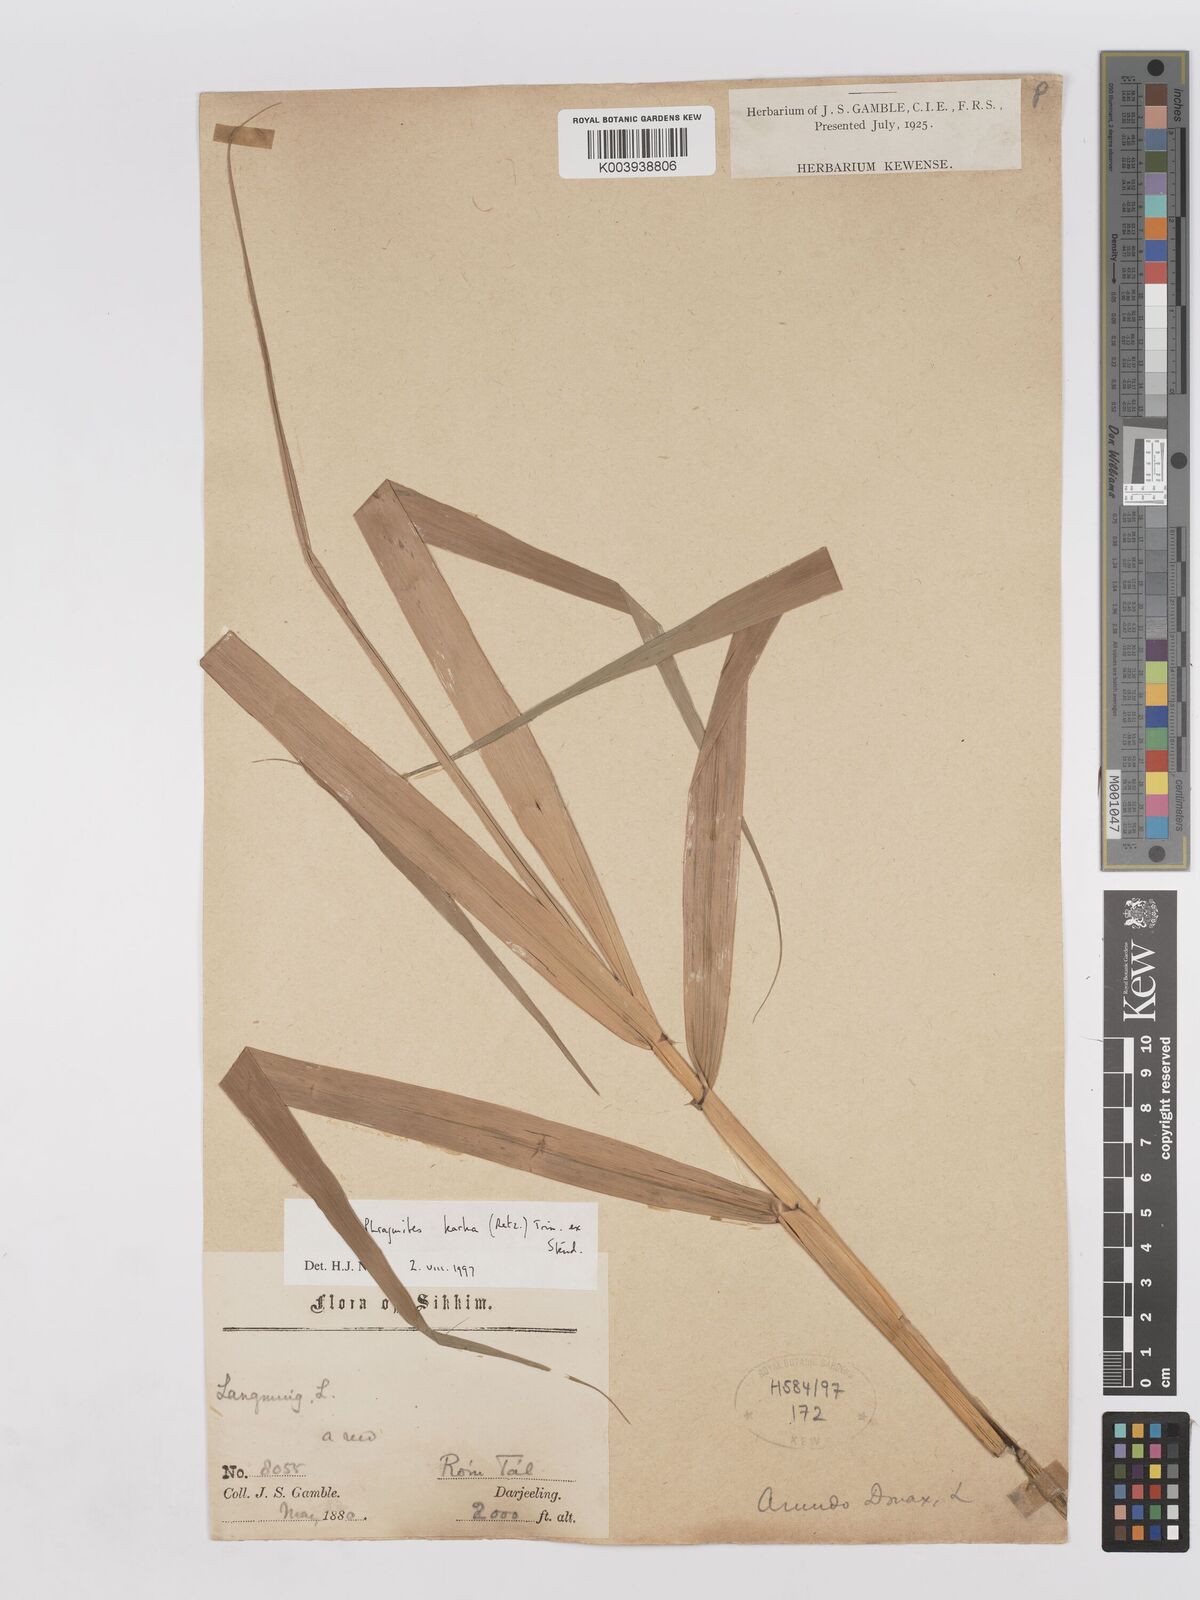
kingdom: Plantae
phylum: Tracheophyta
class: Liliopsida
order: Poales
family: Poaceae
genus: Phragmites
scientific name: Phragmites karka
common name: Tropical reed
